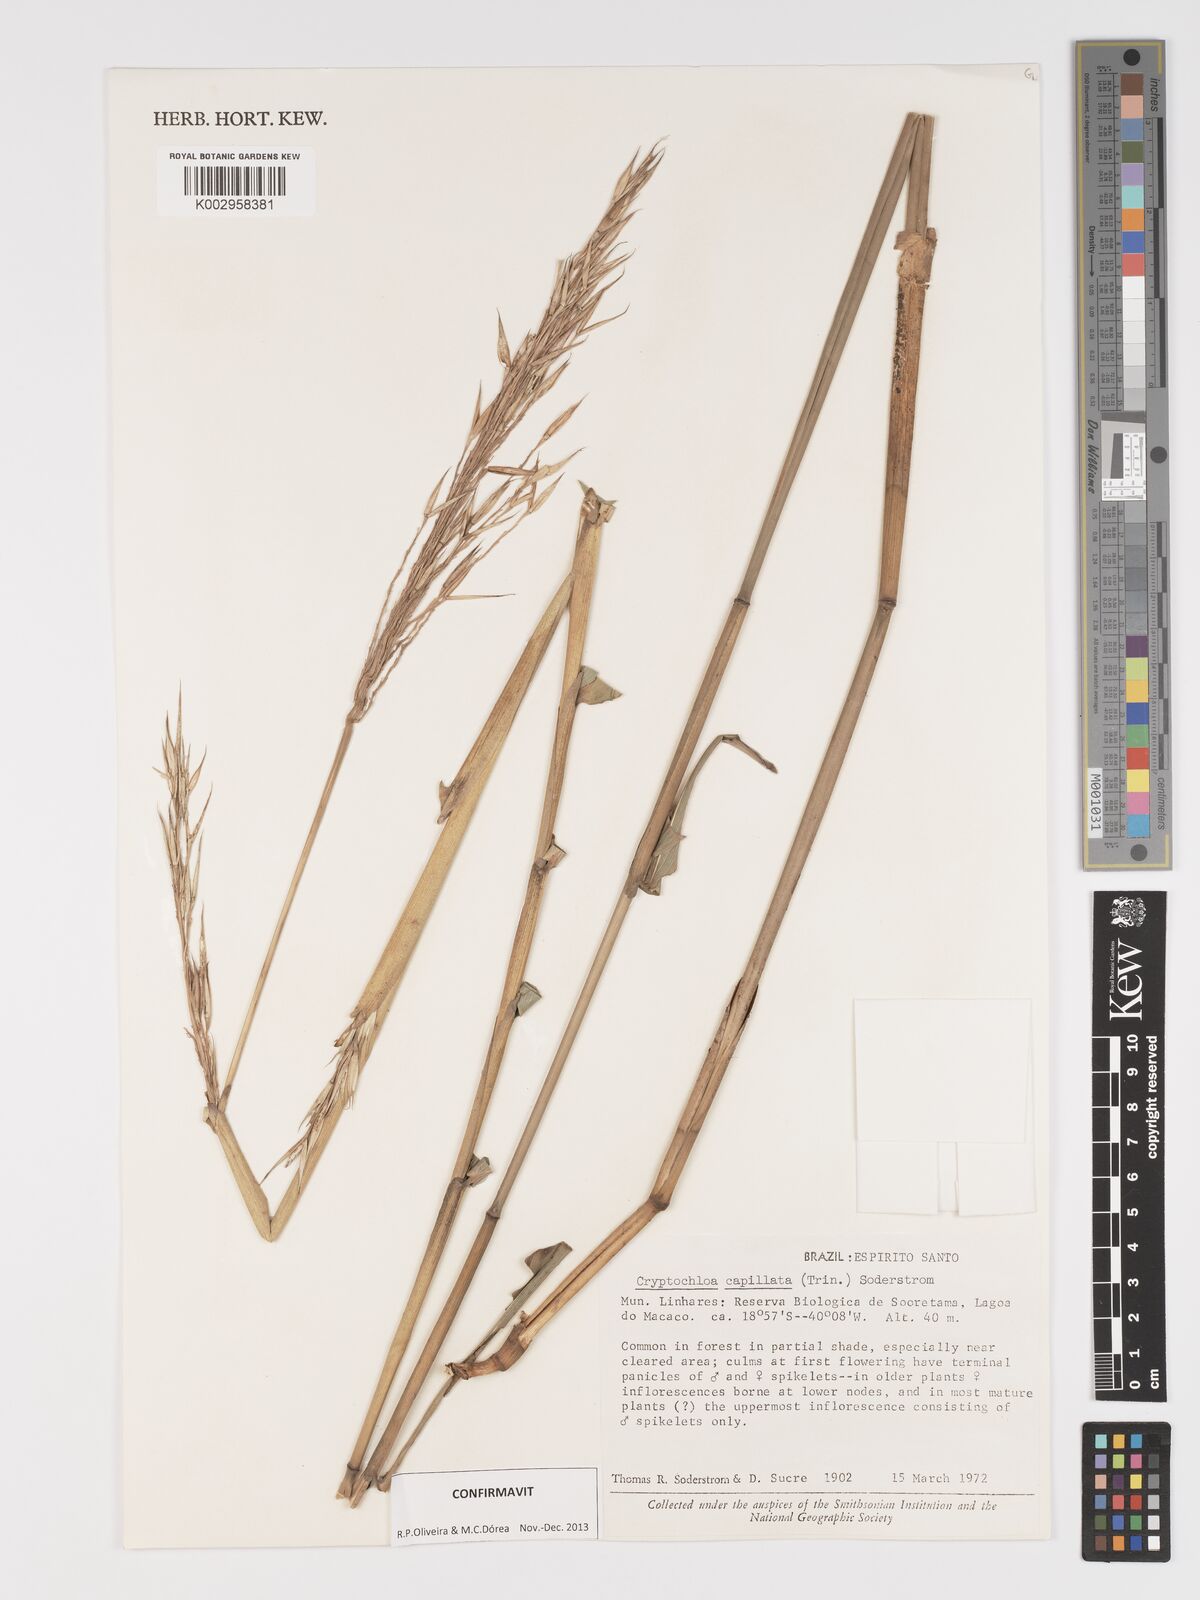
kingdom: Plantae
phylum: Tracheophyta
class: Liliopsida
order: Poales
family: Poaceae
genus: Cryptochloa
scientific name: Cryptochloa capillata
